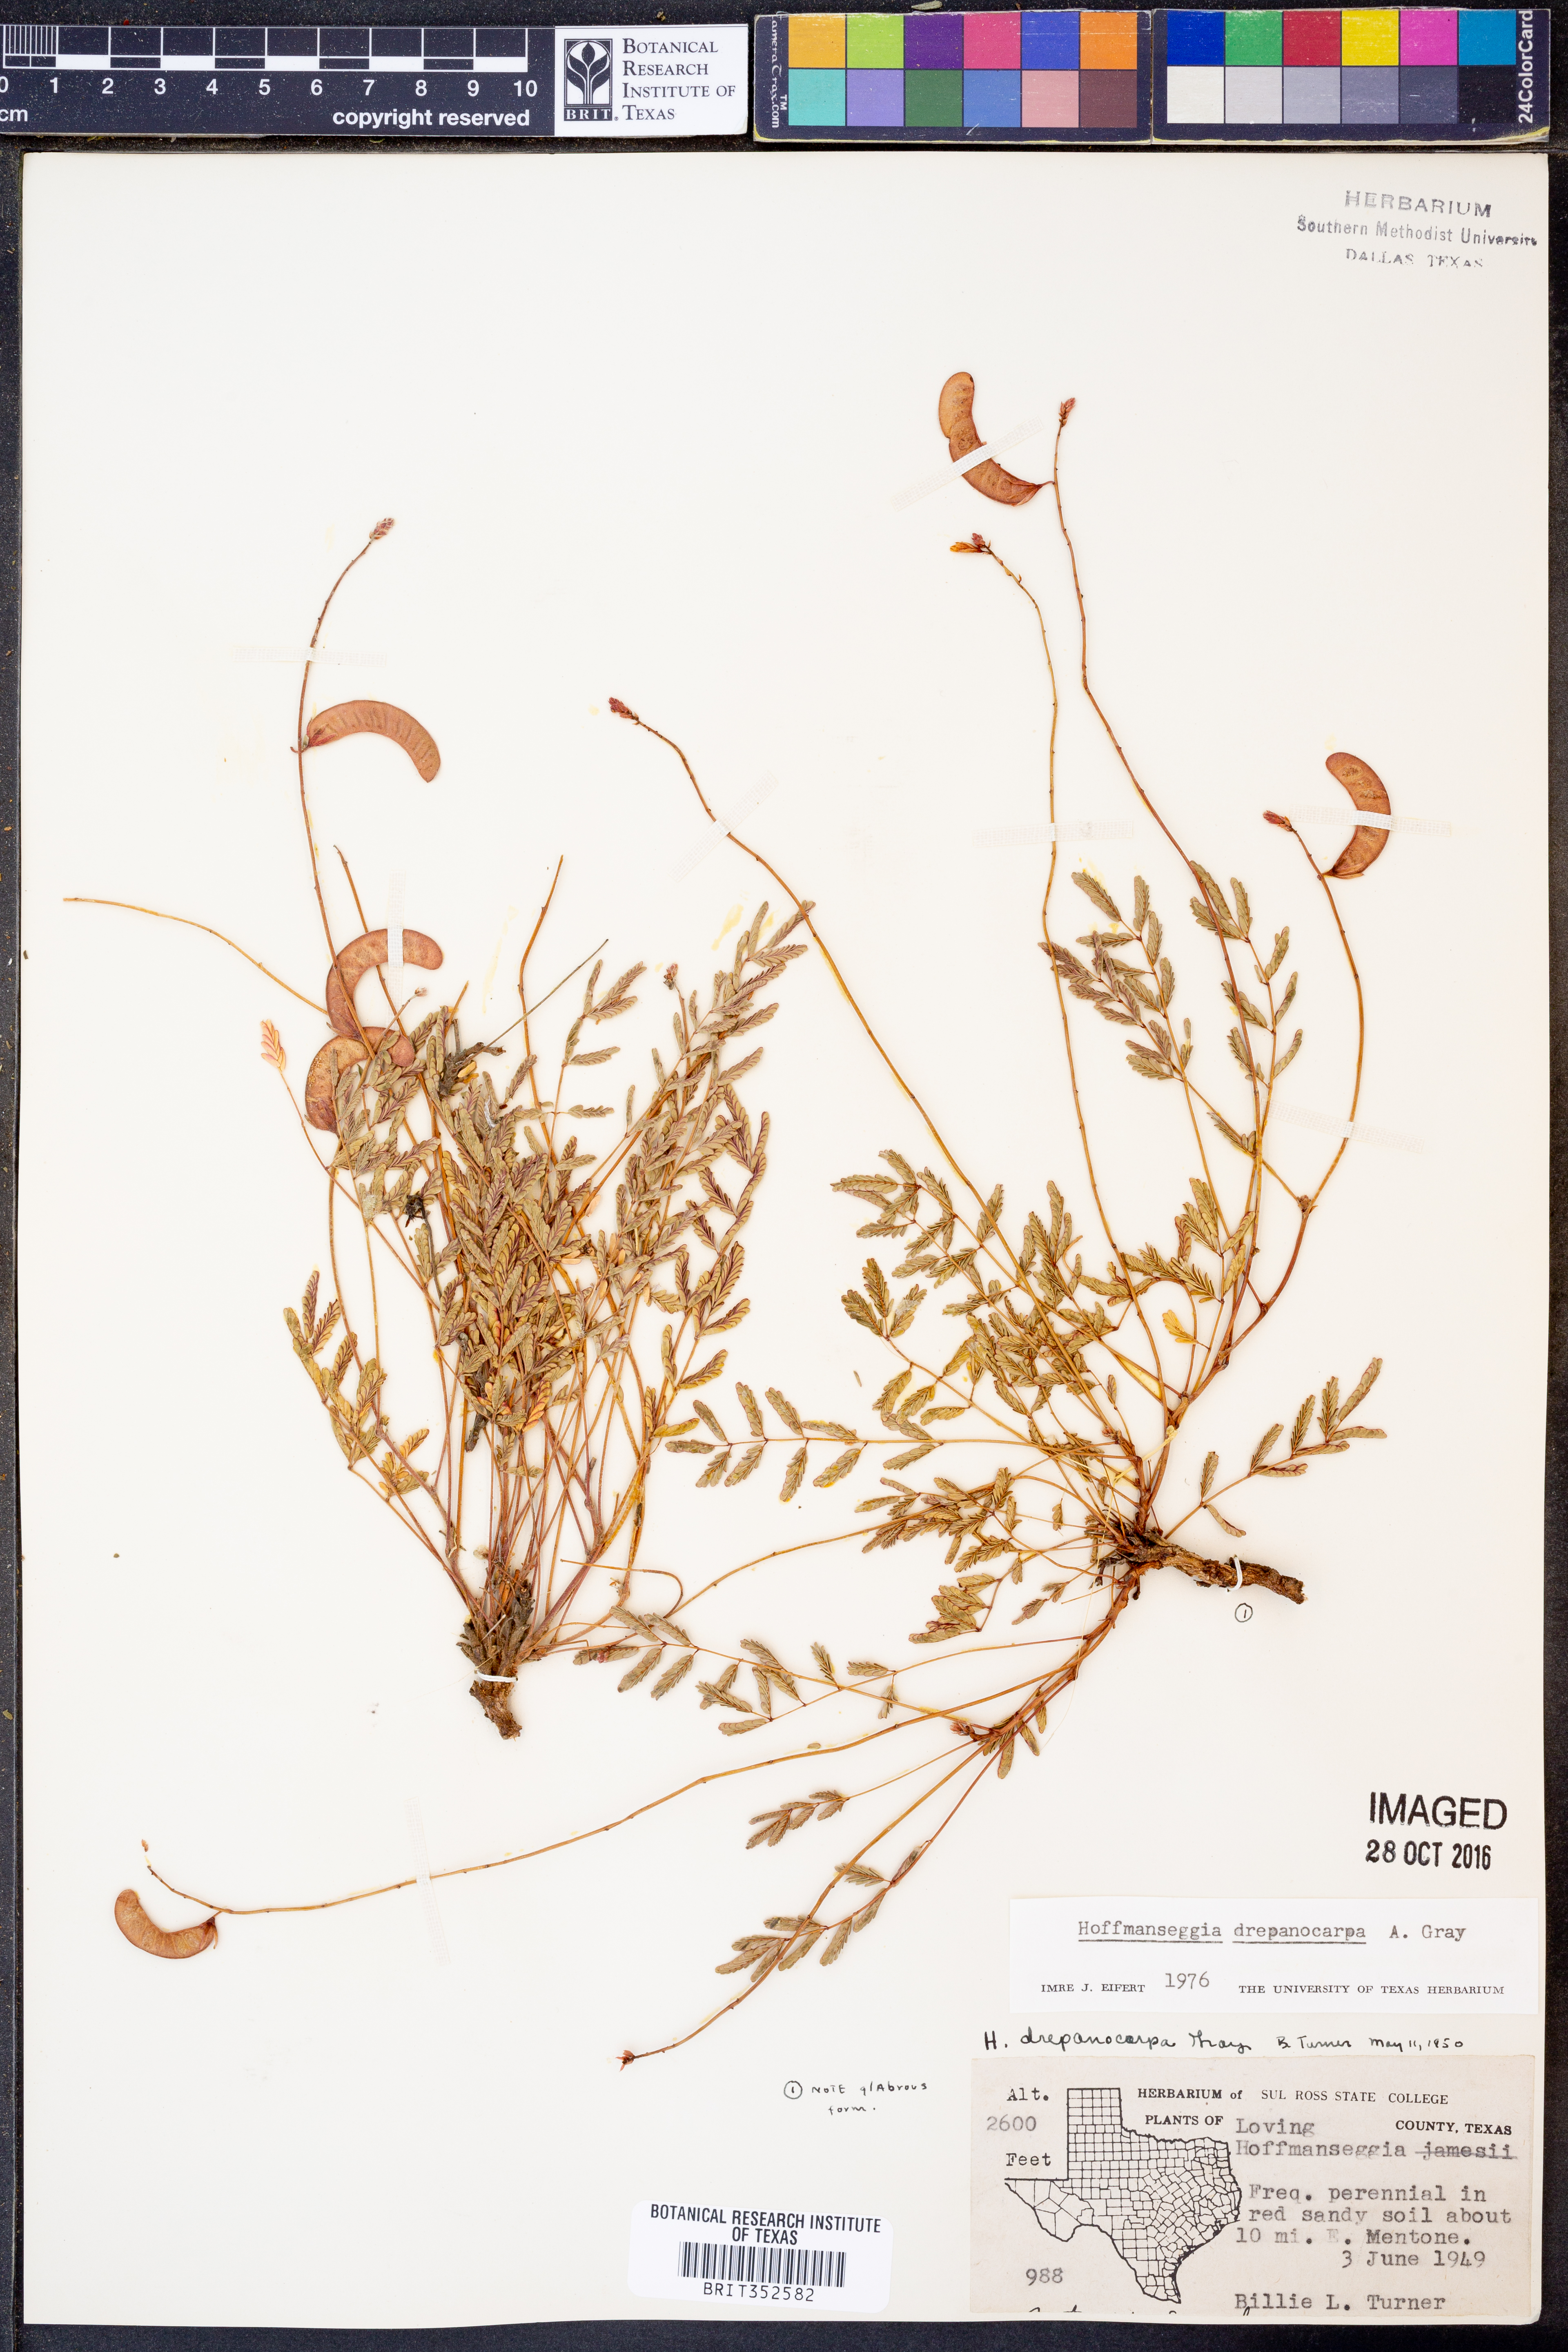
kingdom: Plantae
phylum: Tracheophyta
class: Magnoliopsida
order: Fabales
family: Fabaceae
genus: Hoffmannseggia
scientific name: Hoffmannseggia drepanocarpa
